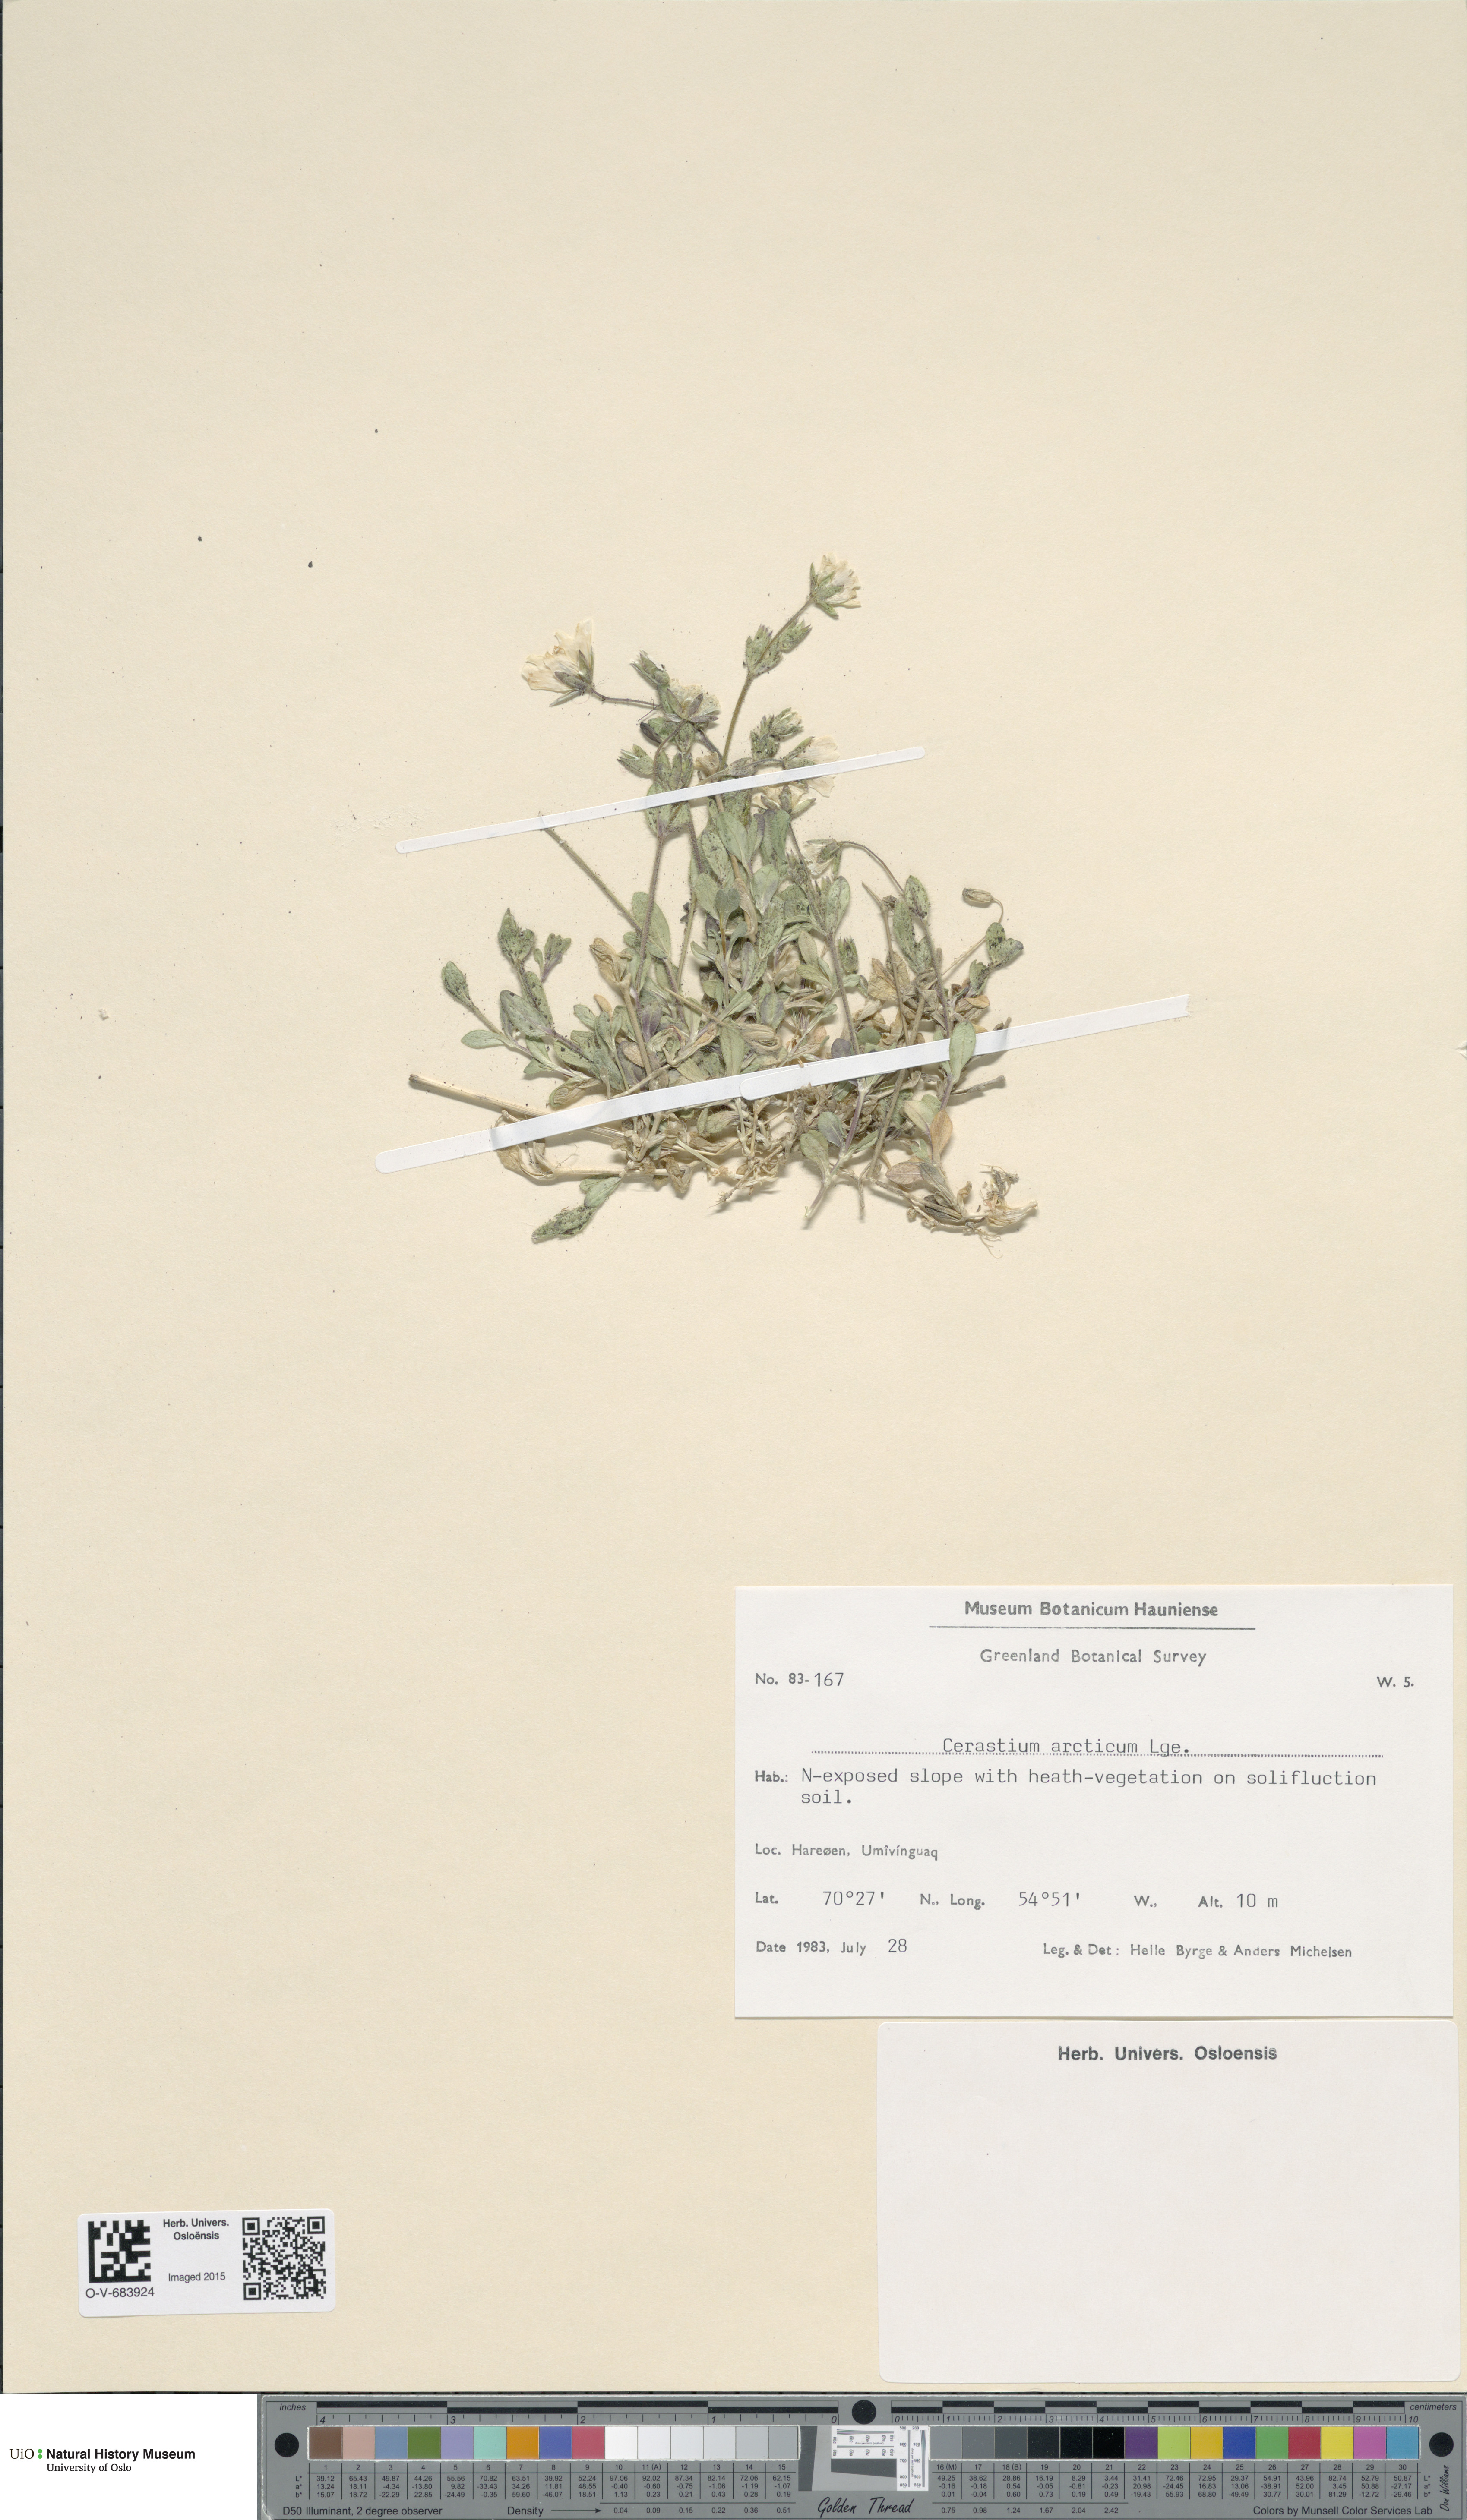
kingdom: Plantae
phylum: Tracheophyta
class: Magnoliopsida
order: Caryophyllales
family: Caryophyllaceae
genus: Cerastium
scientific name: Cerastium arcticum
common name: Arctic mouse-ear
